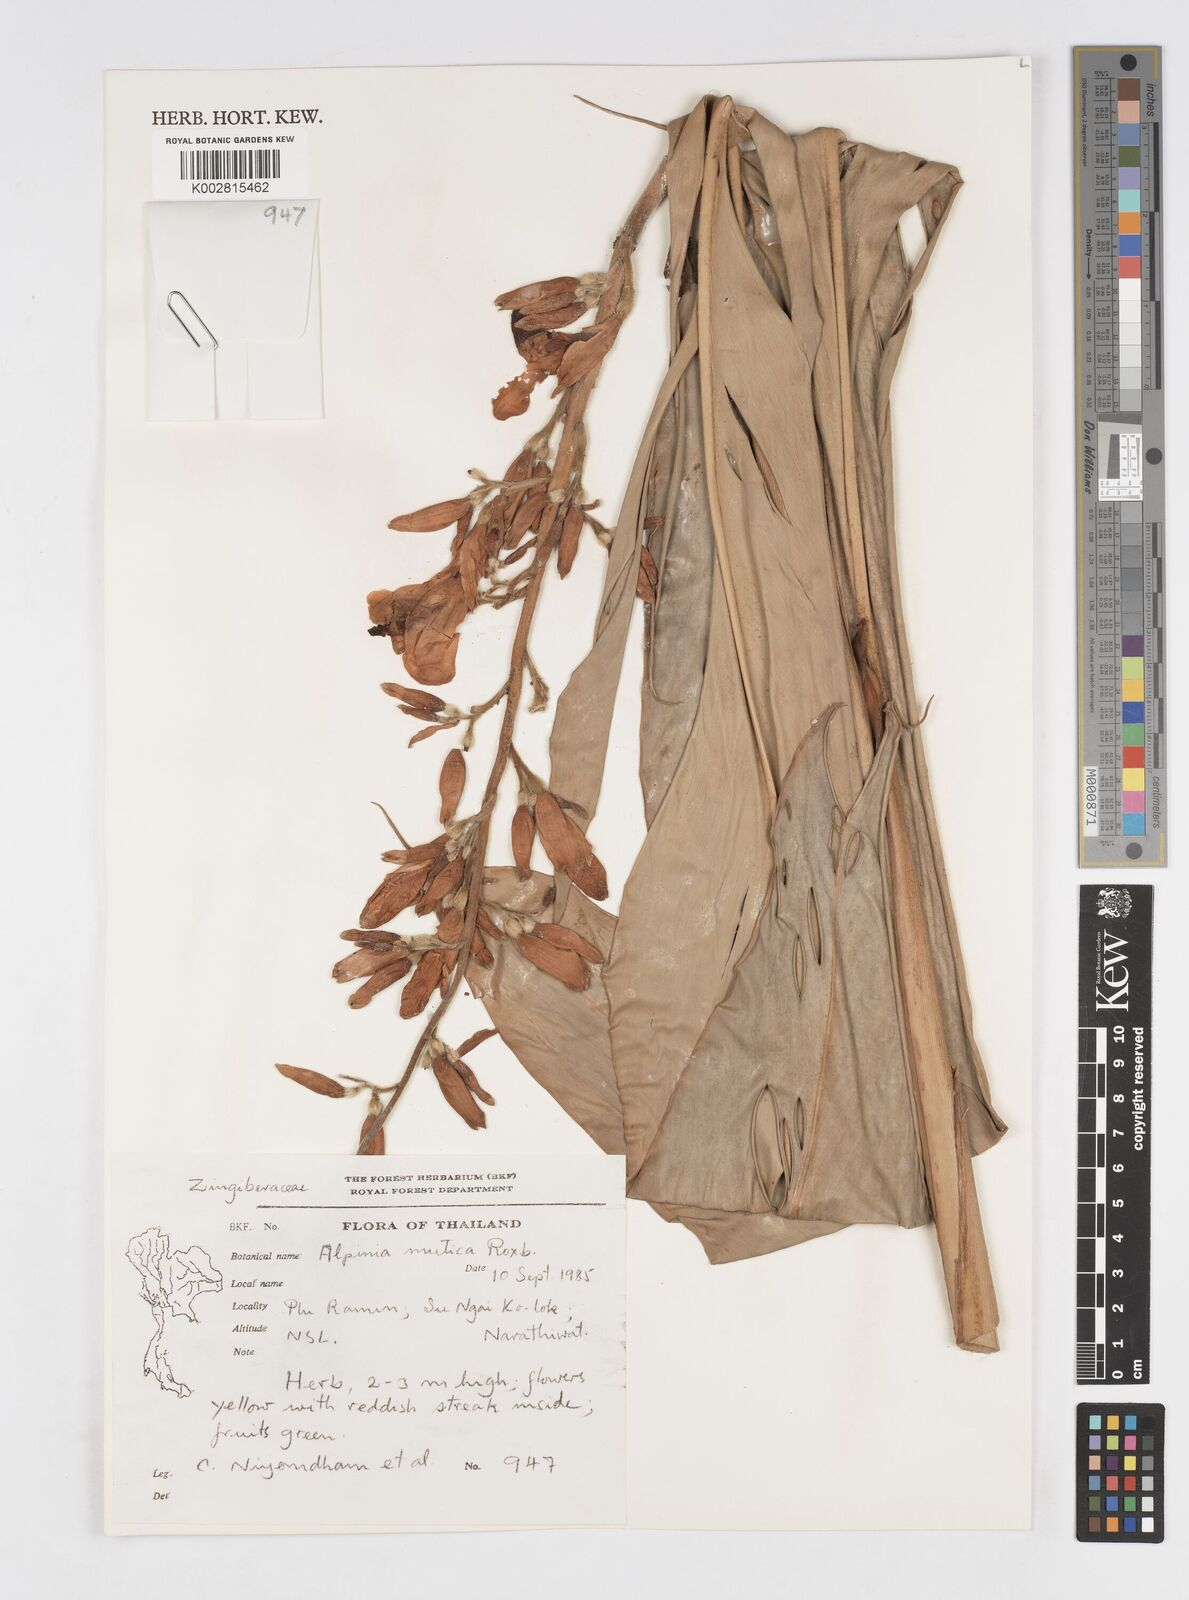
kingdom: Plantae
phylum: Tracheophyta
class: Liliopsida
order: Zingiberales
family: Zingiberaceae
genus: Alpinia
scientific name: Alpinia mutica
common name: Small shell ginger
